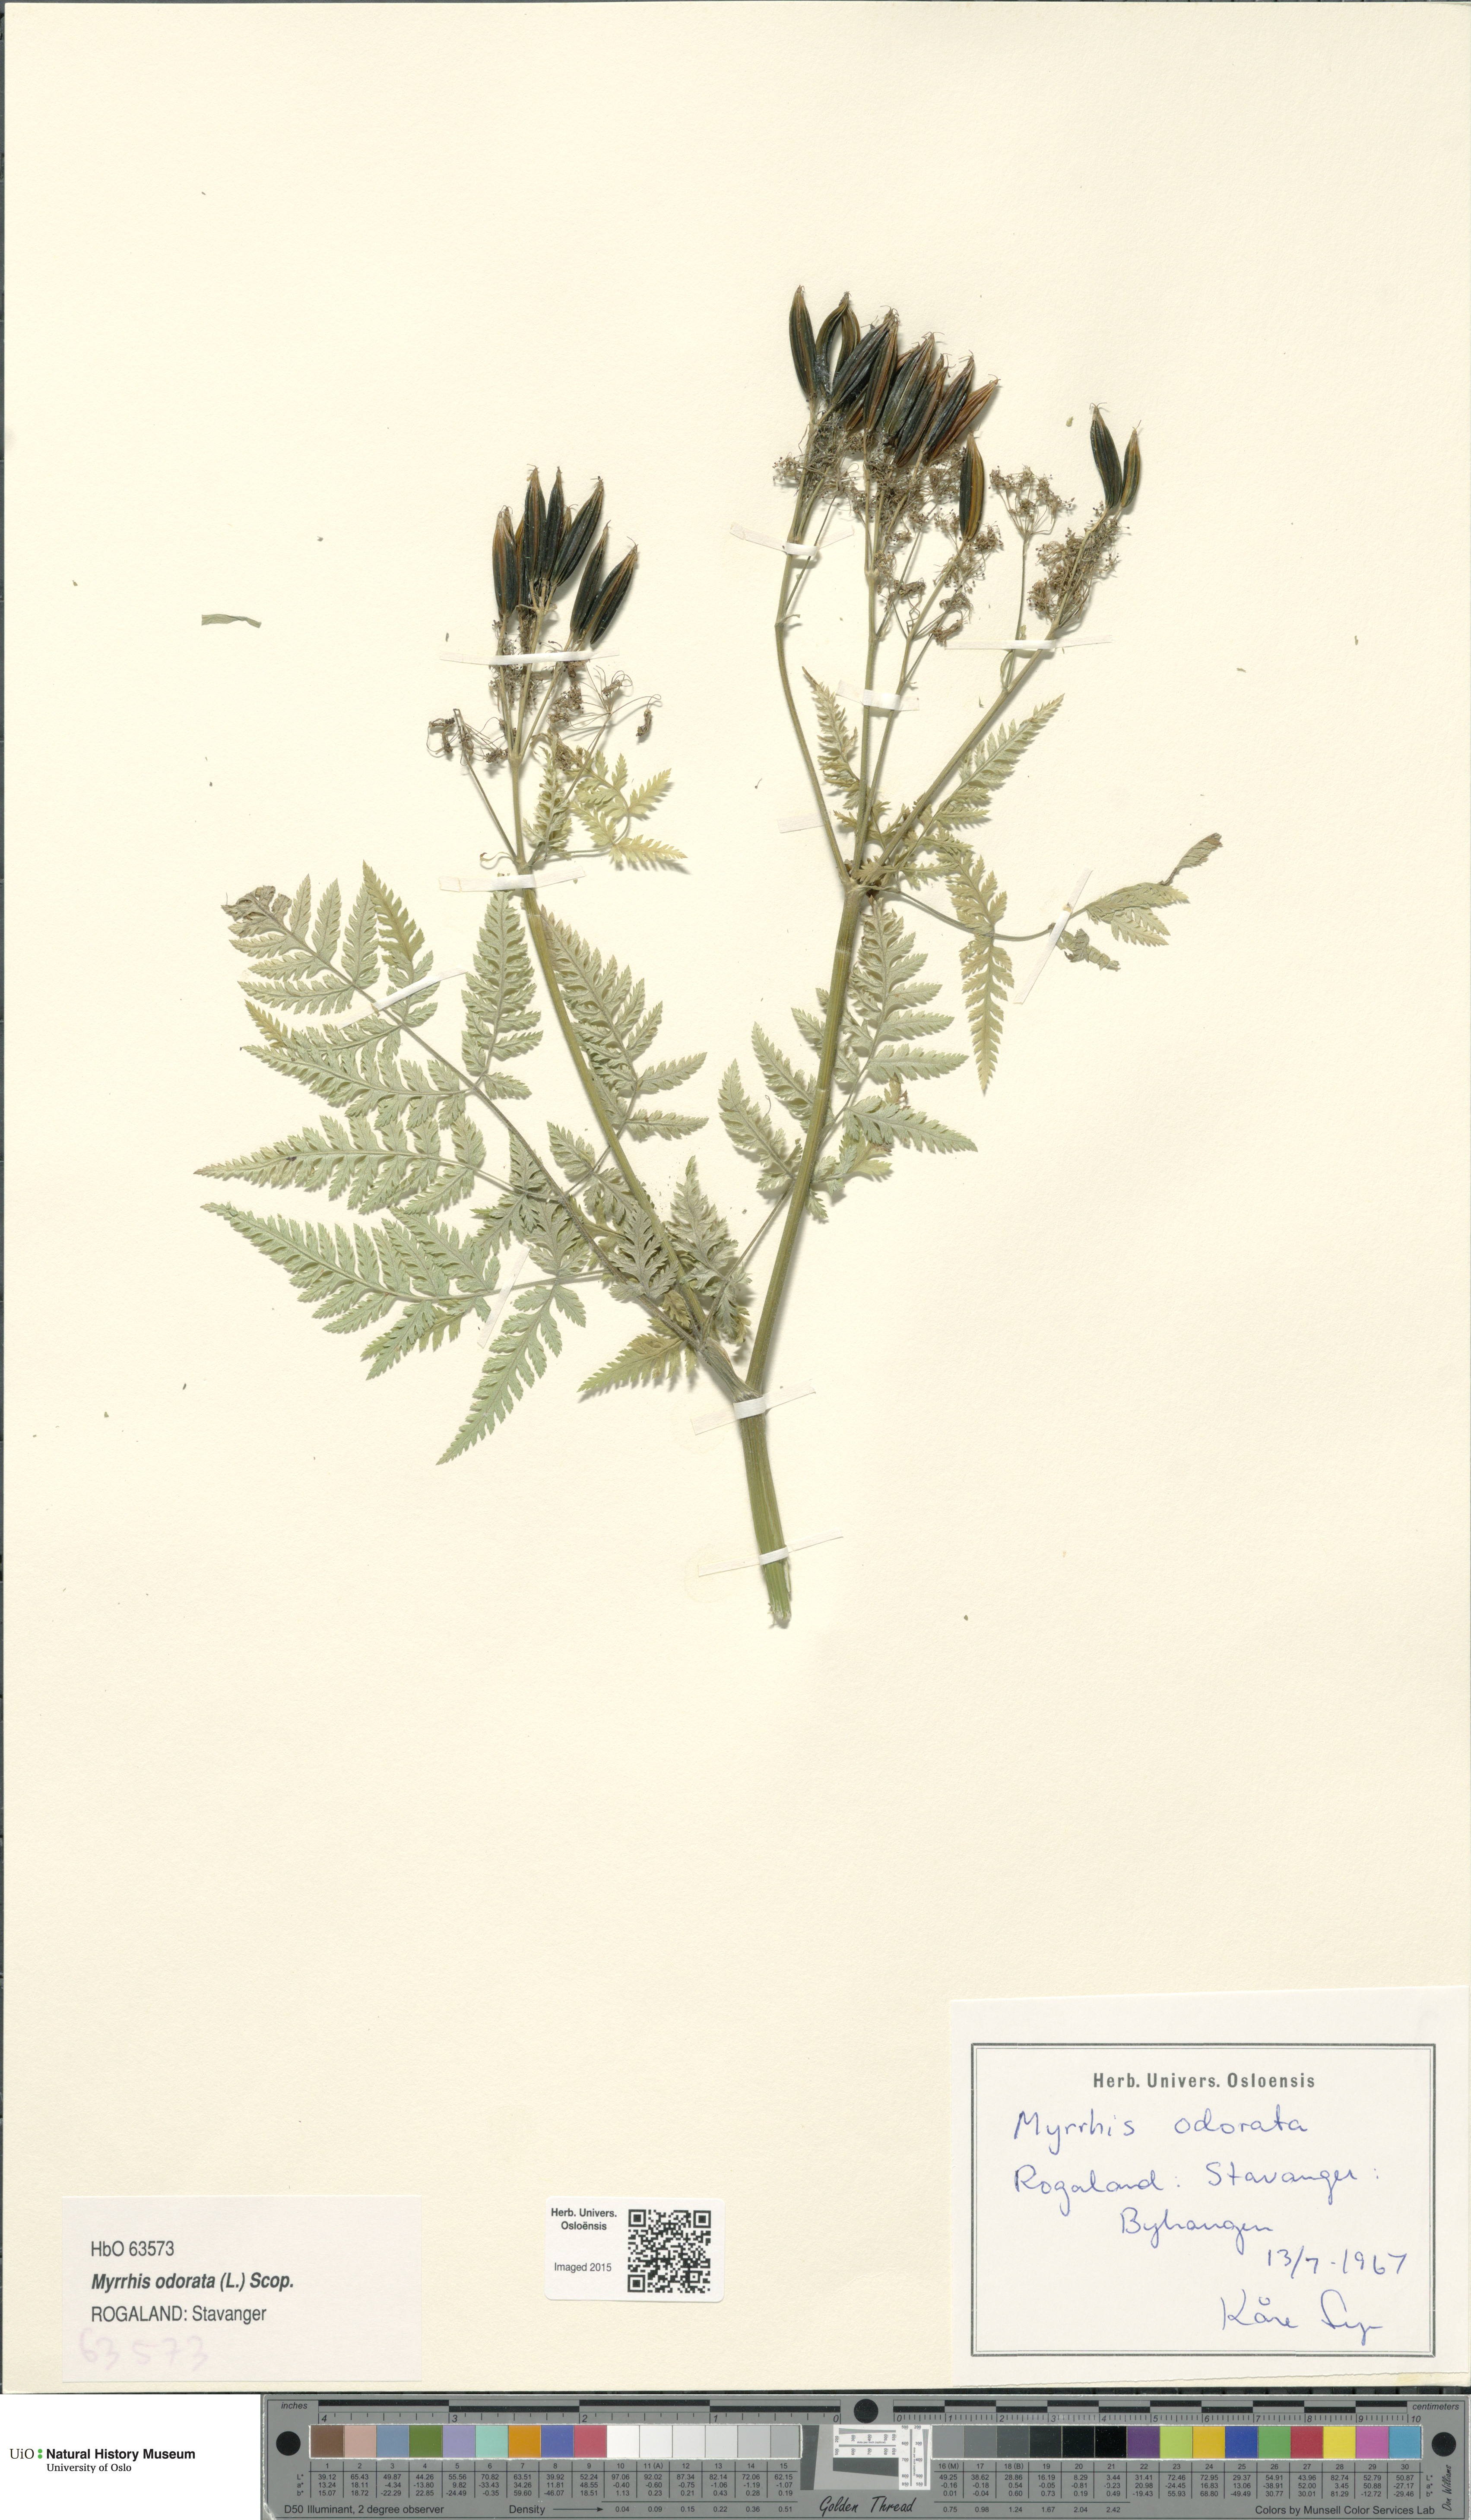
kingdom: Plantae
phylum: Tracheophyta
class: Magnoliopsida
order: Apiales
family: Apiaceae
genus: Myrrhis
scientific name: Myrrhis odorata
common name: Sweet cicely
